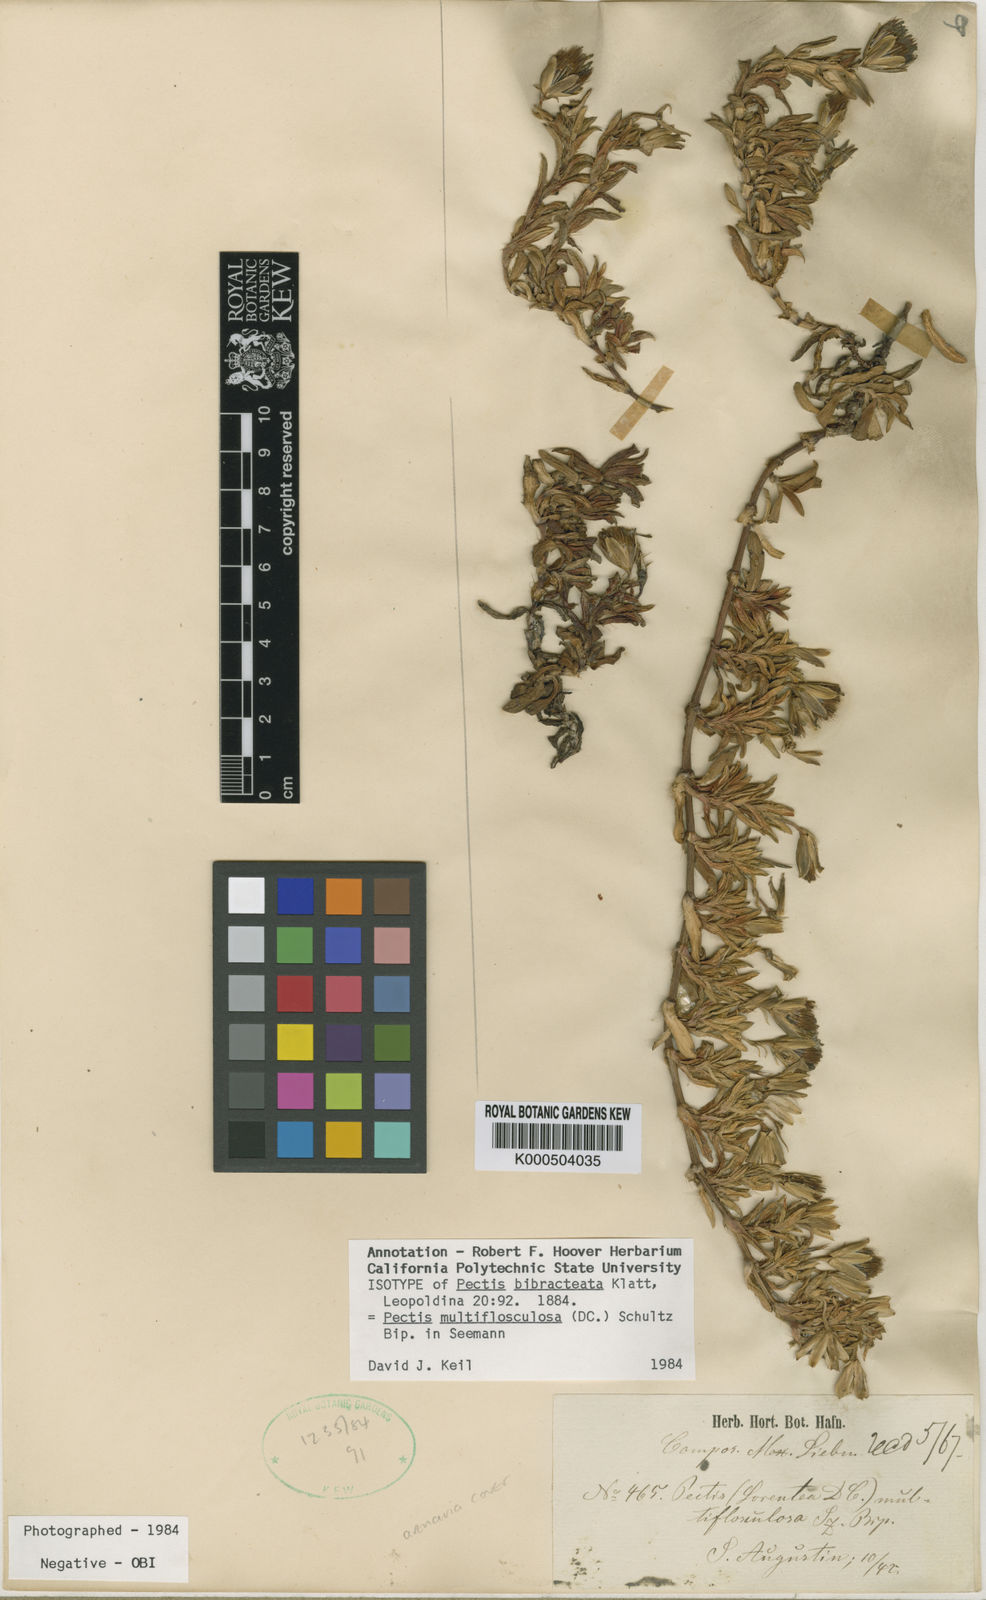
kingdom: Plantae
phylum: Tracheophyta
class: Magnoliopsida
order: Asterales
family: Asteraceae
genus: Pectis
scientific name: Pectis multiflosculosa
